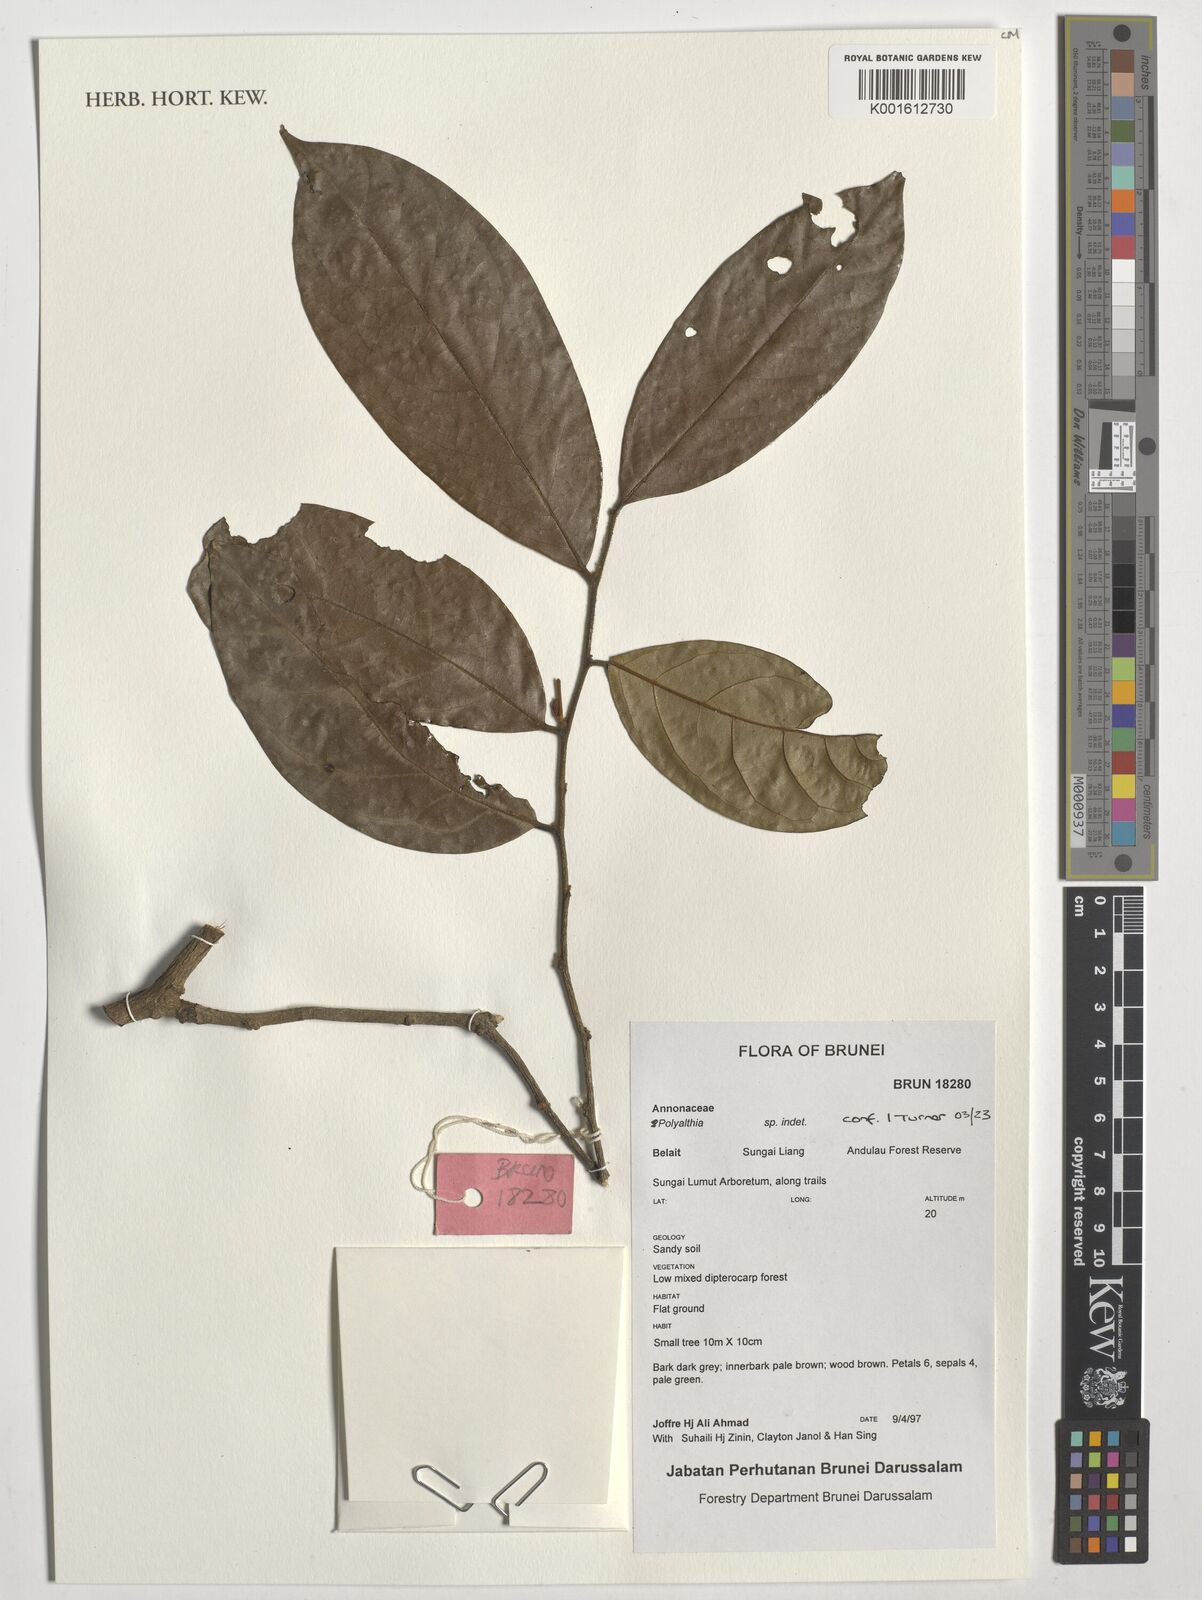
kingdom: Plantae
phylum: Tracheophyta
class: Magnoliopsida
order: Magnoliales
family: Annonaceae
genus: Polyalthia
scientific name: Polyalthia
